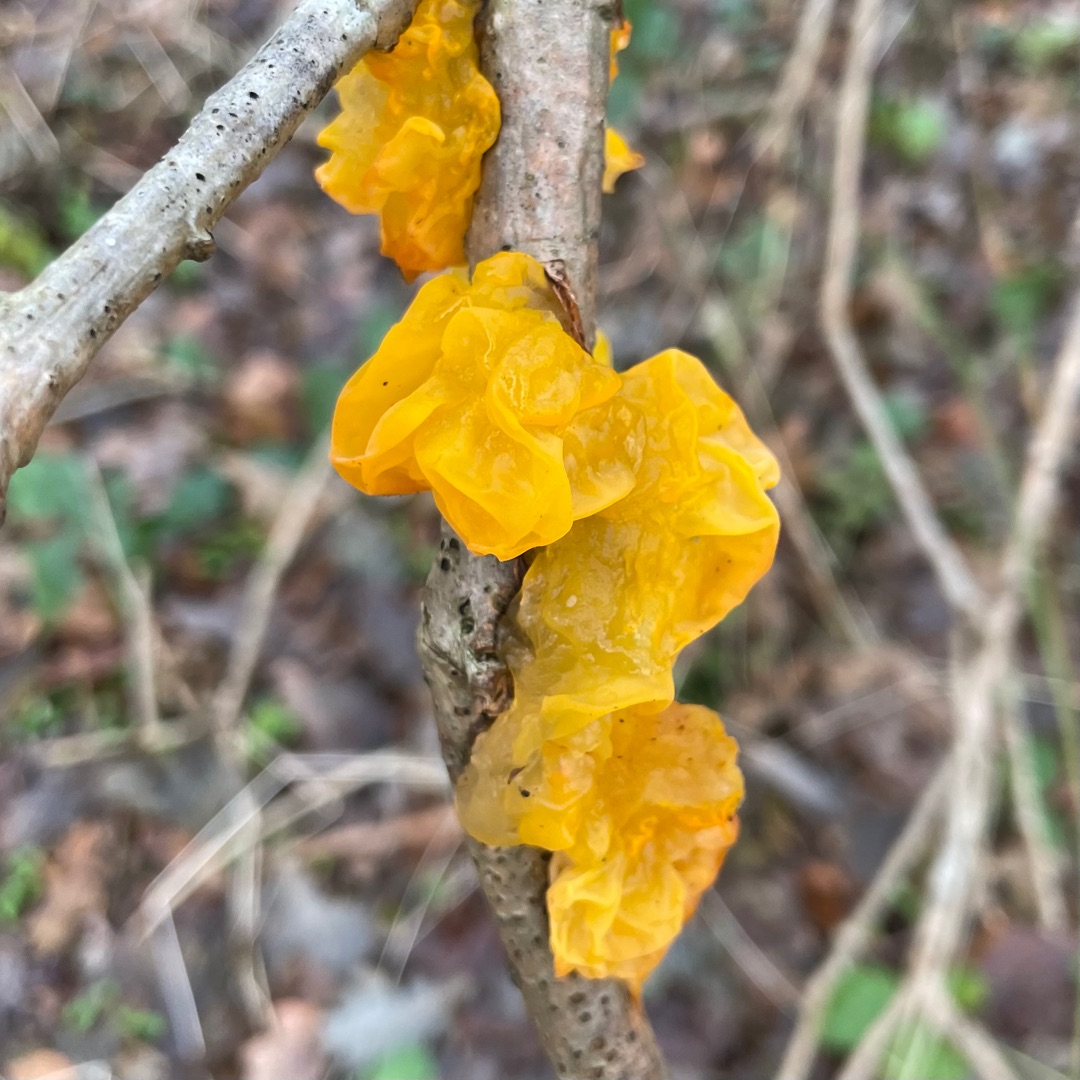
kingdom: Fungi
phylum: Basidiomycota
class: Tremellomycetes
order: Tremellales
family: Tremellaceae
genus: Tremella
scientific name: Tremella mesenterica
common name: Gul bævresvamp
